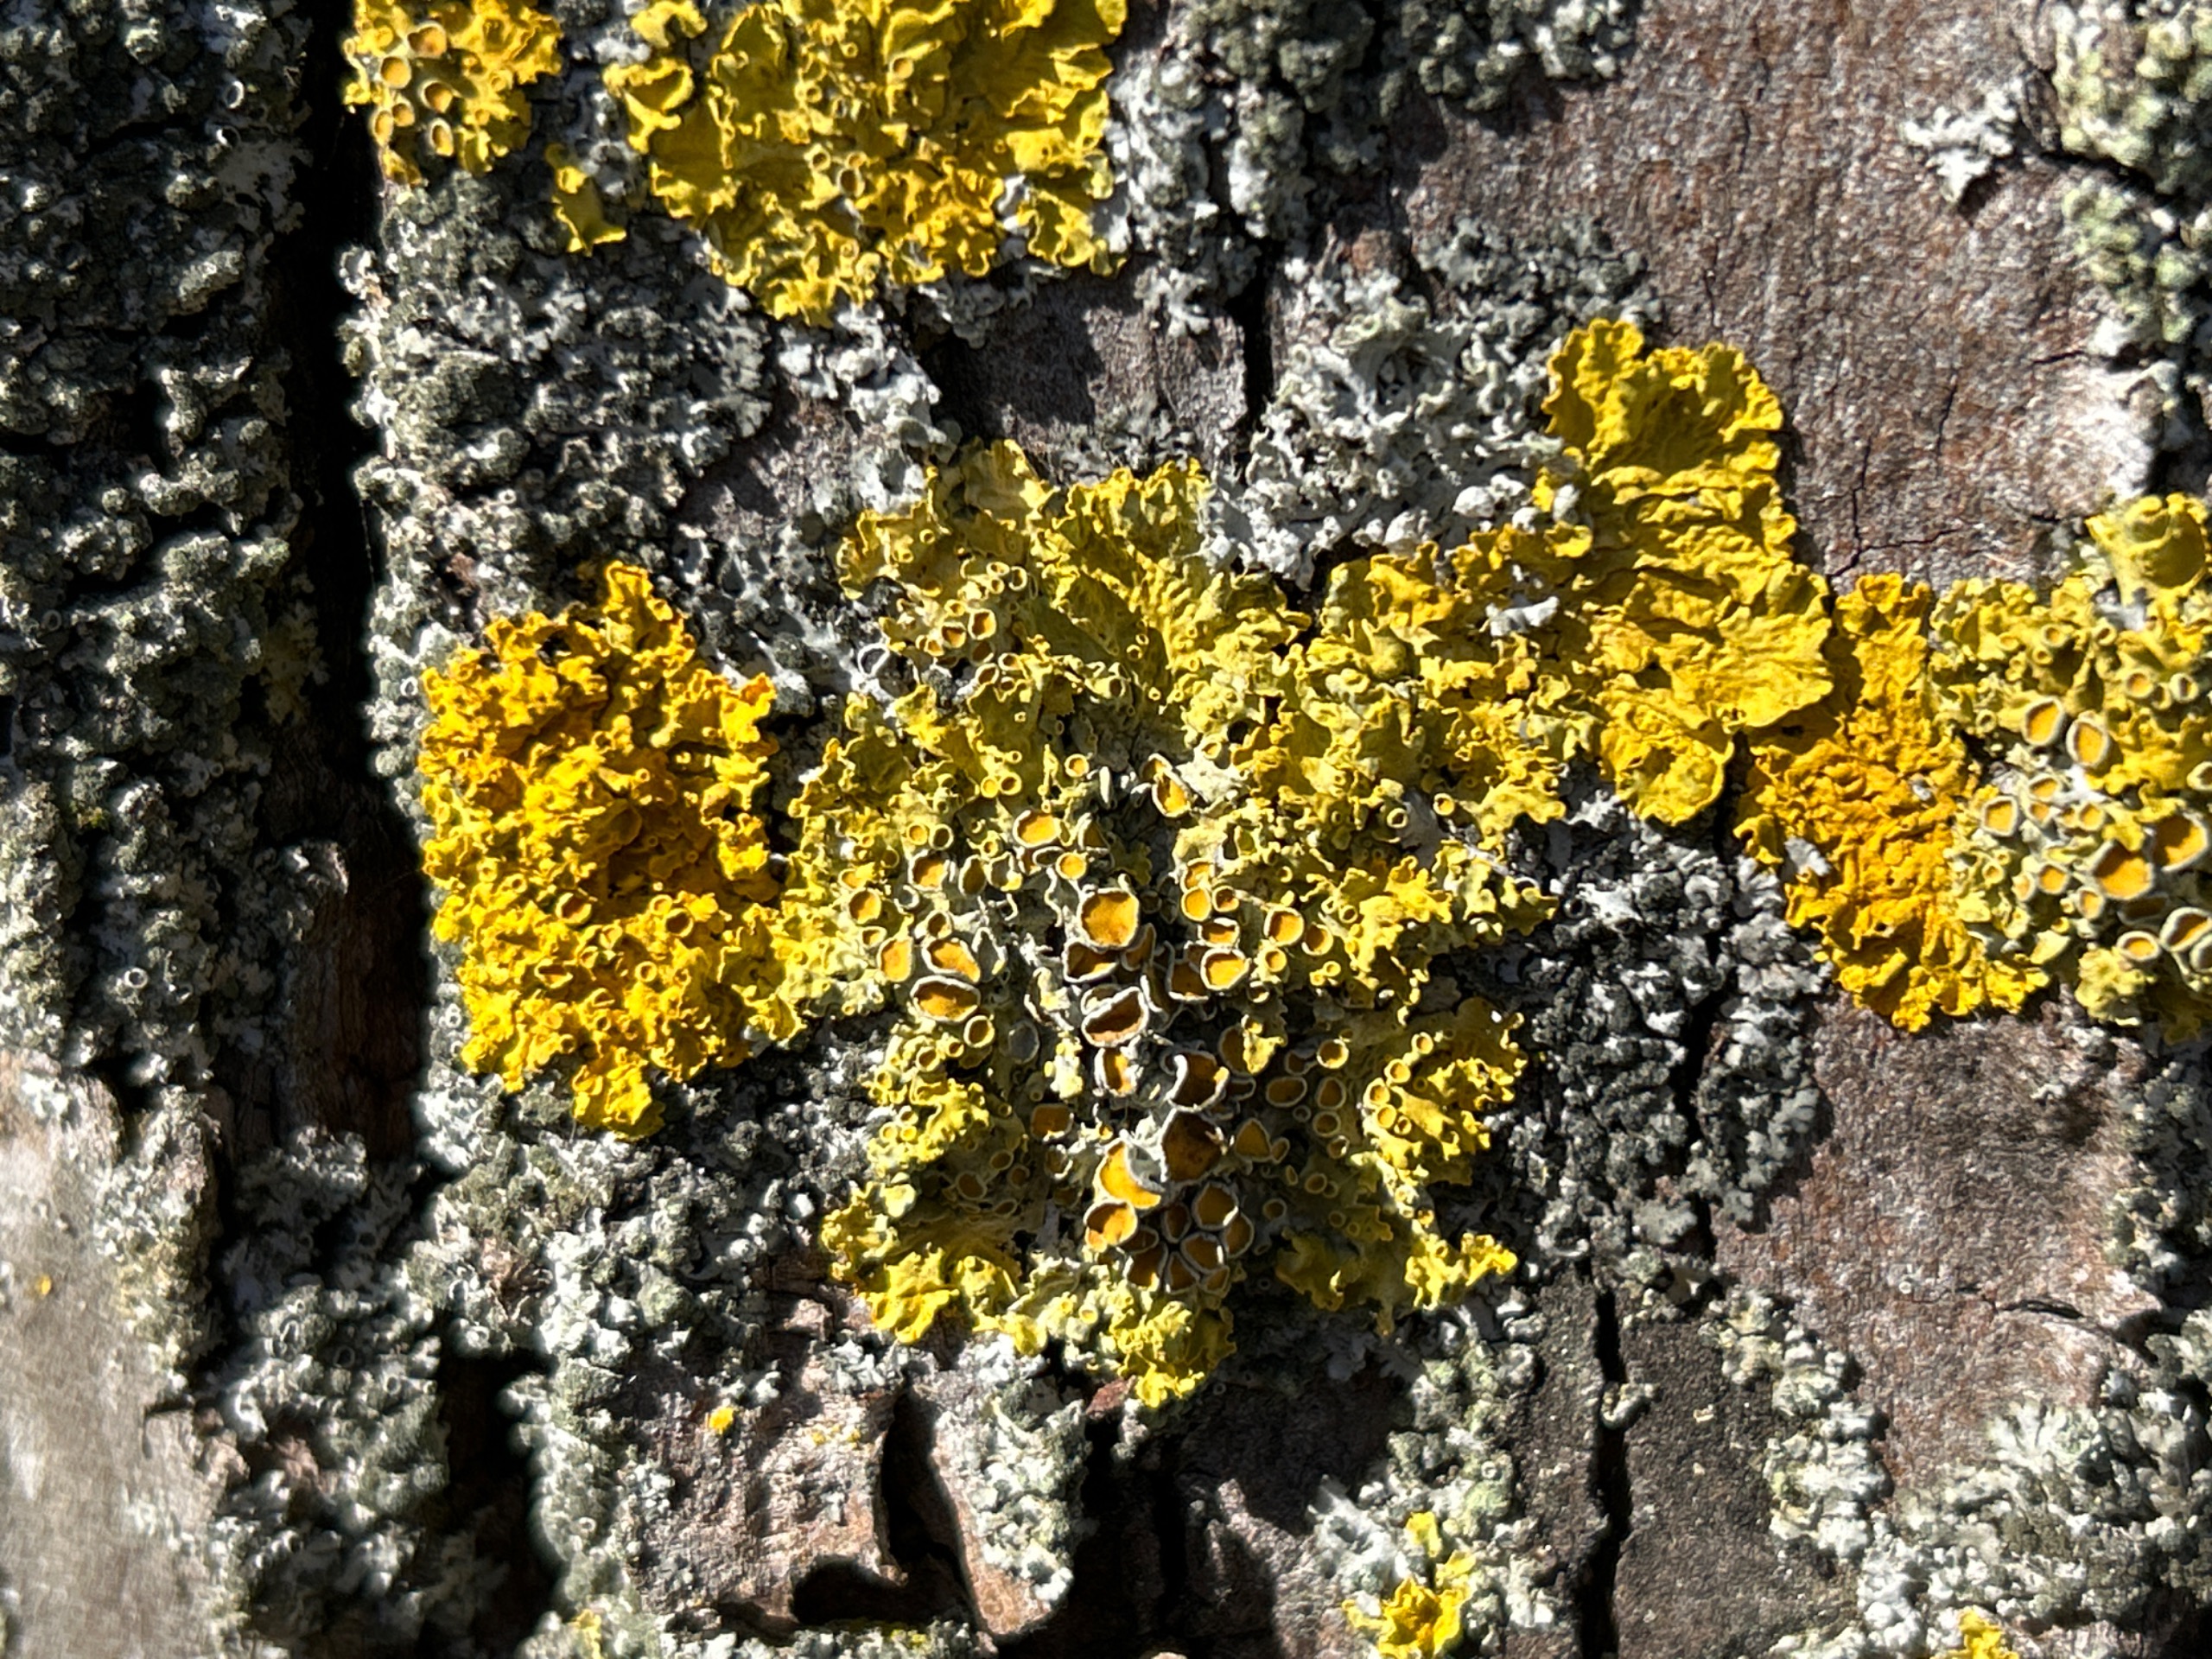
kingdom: Fungi
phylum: Ascomycota
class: Lecanoromycetes
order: Teloschistales
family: Teloschistaceae
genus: Xanthoria
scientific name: Xanthoria parietina
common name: Almindelig væggelav
